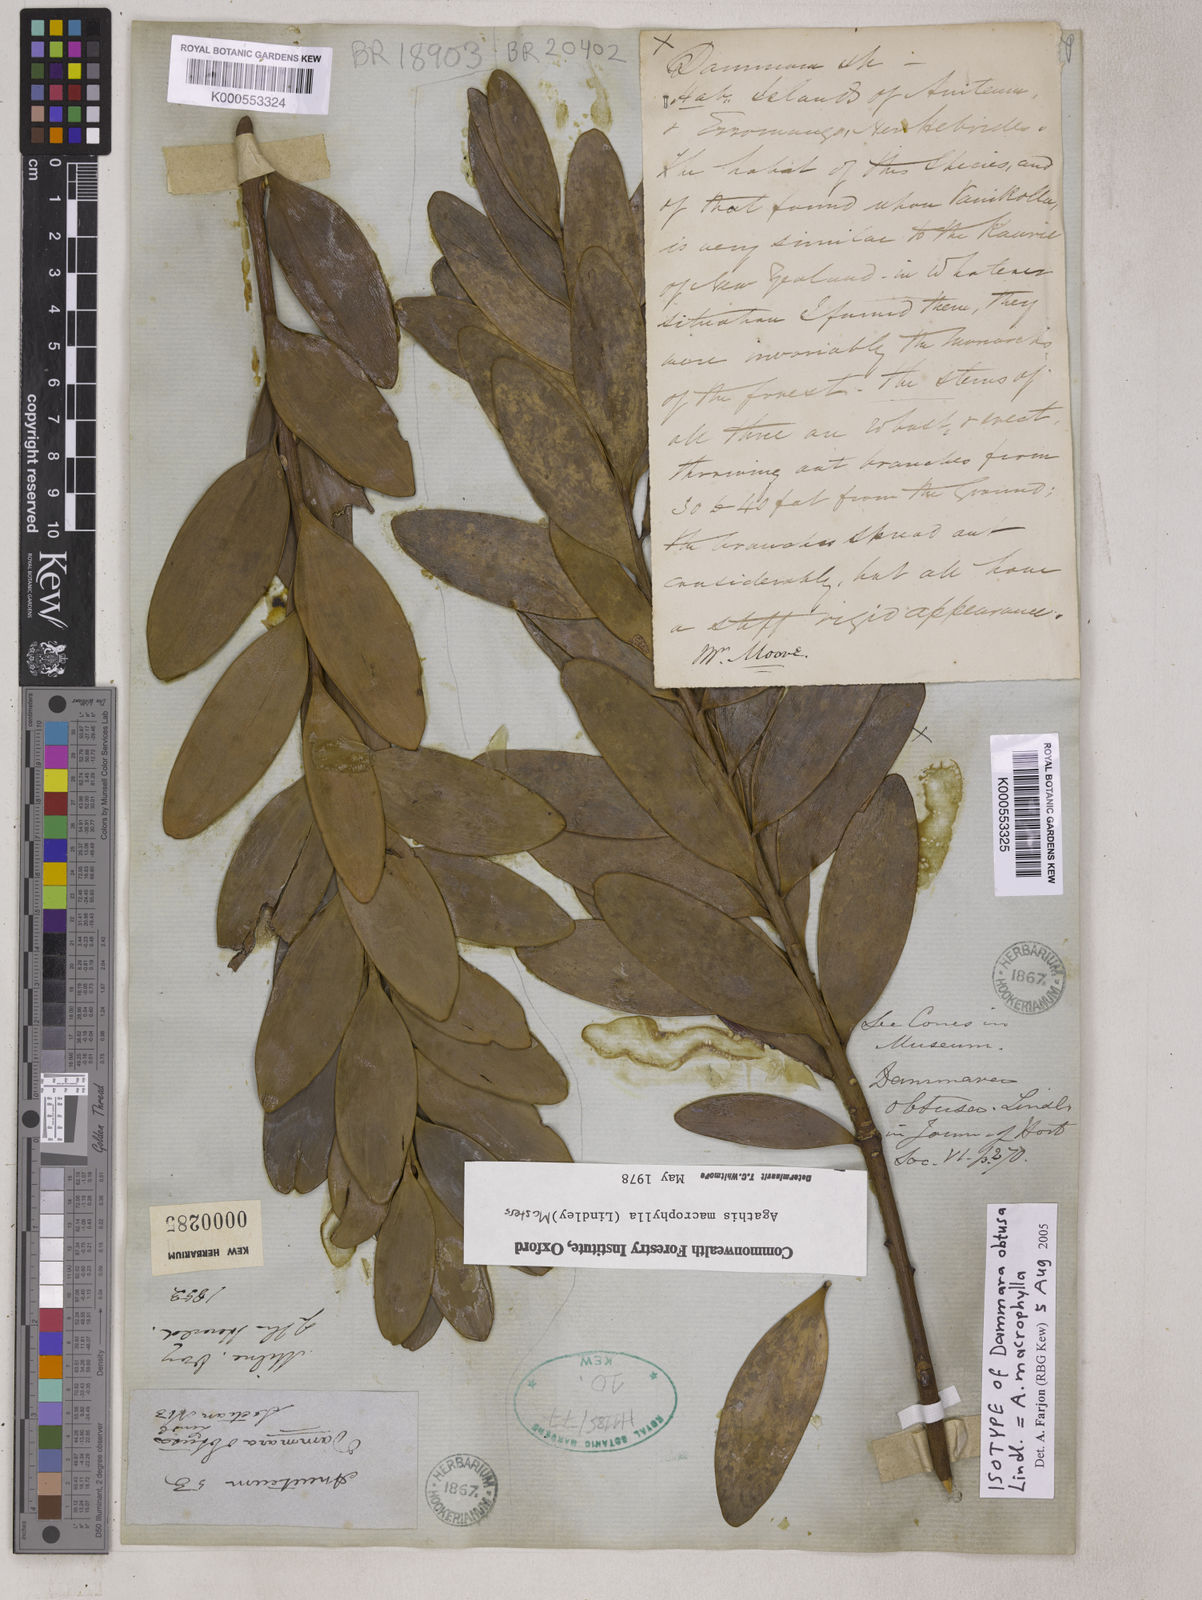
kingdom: Plantae
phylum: Tracheophyta
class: Pinopsida
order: Pinales
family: Araucariaceae
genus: Agathis
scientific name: Agathis macrophylla
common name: Fijian kauri pine
